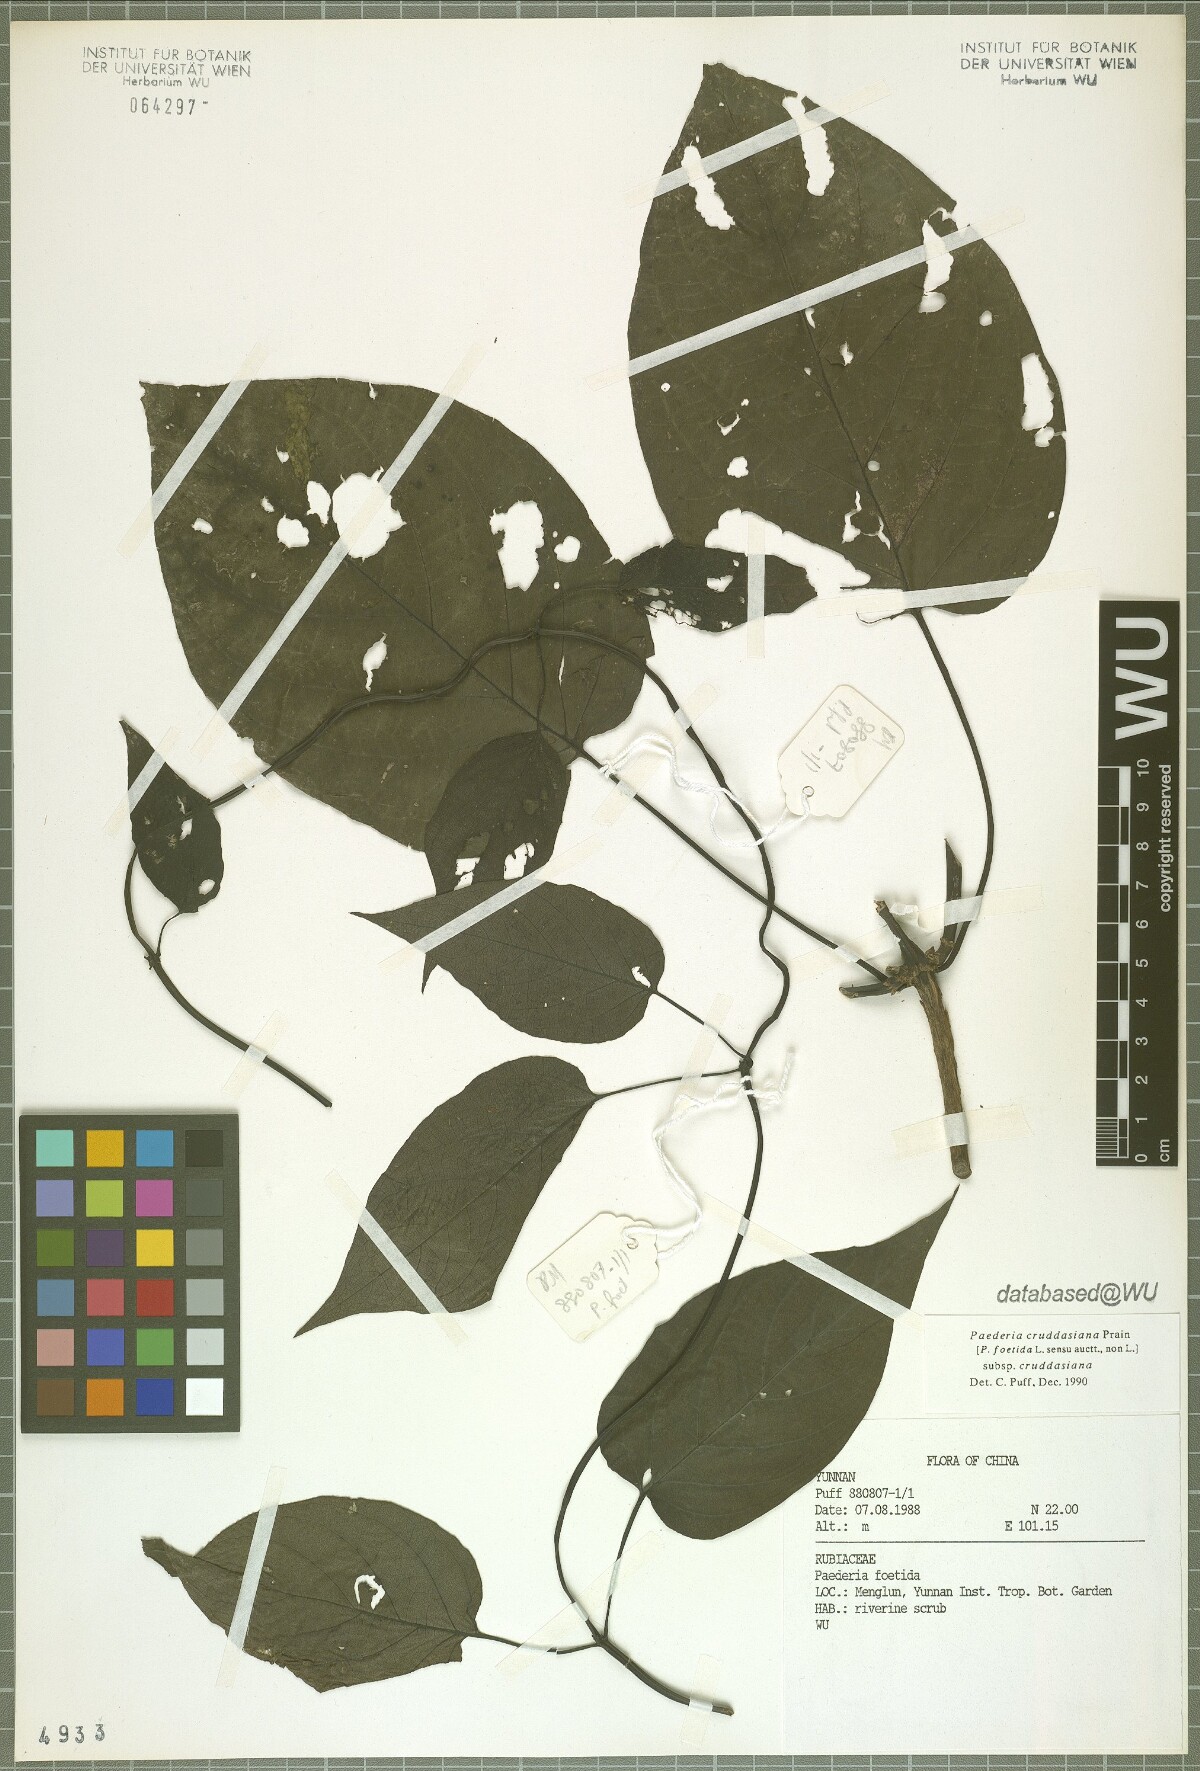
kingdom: Plantae
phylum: Tracheophyta
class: Magnoliopsida
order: Gentianales
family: Rubiaceae
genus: Paederia
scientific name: Paederia cruddasiana
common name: Sewer vine
